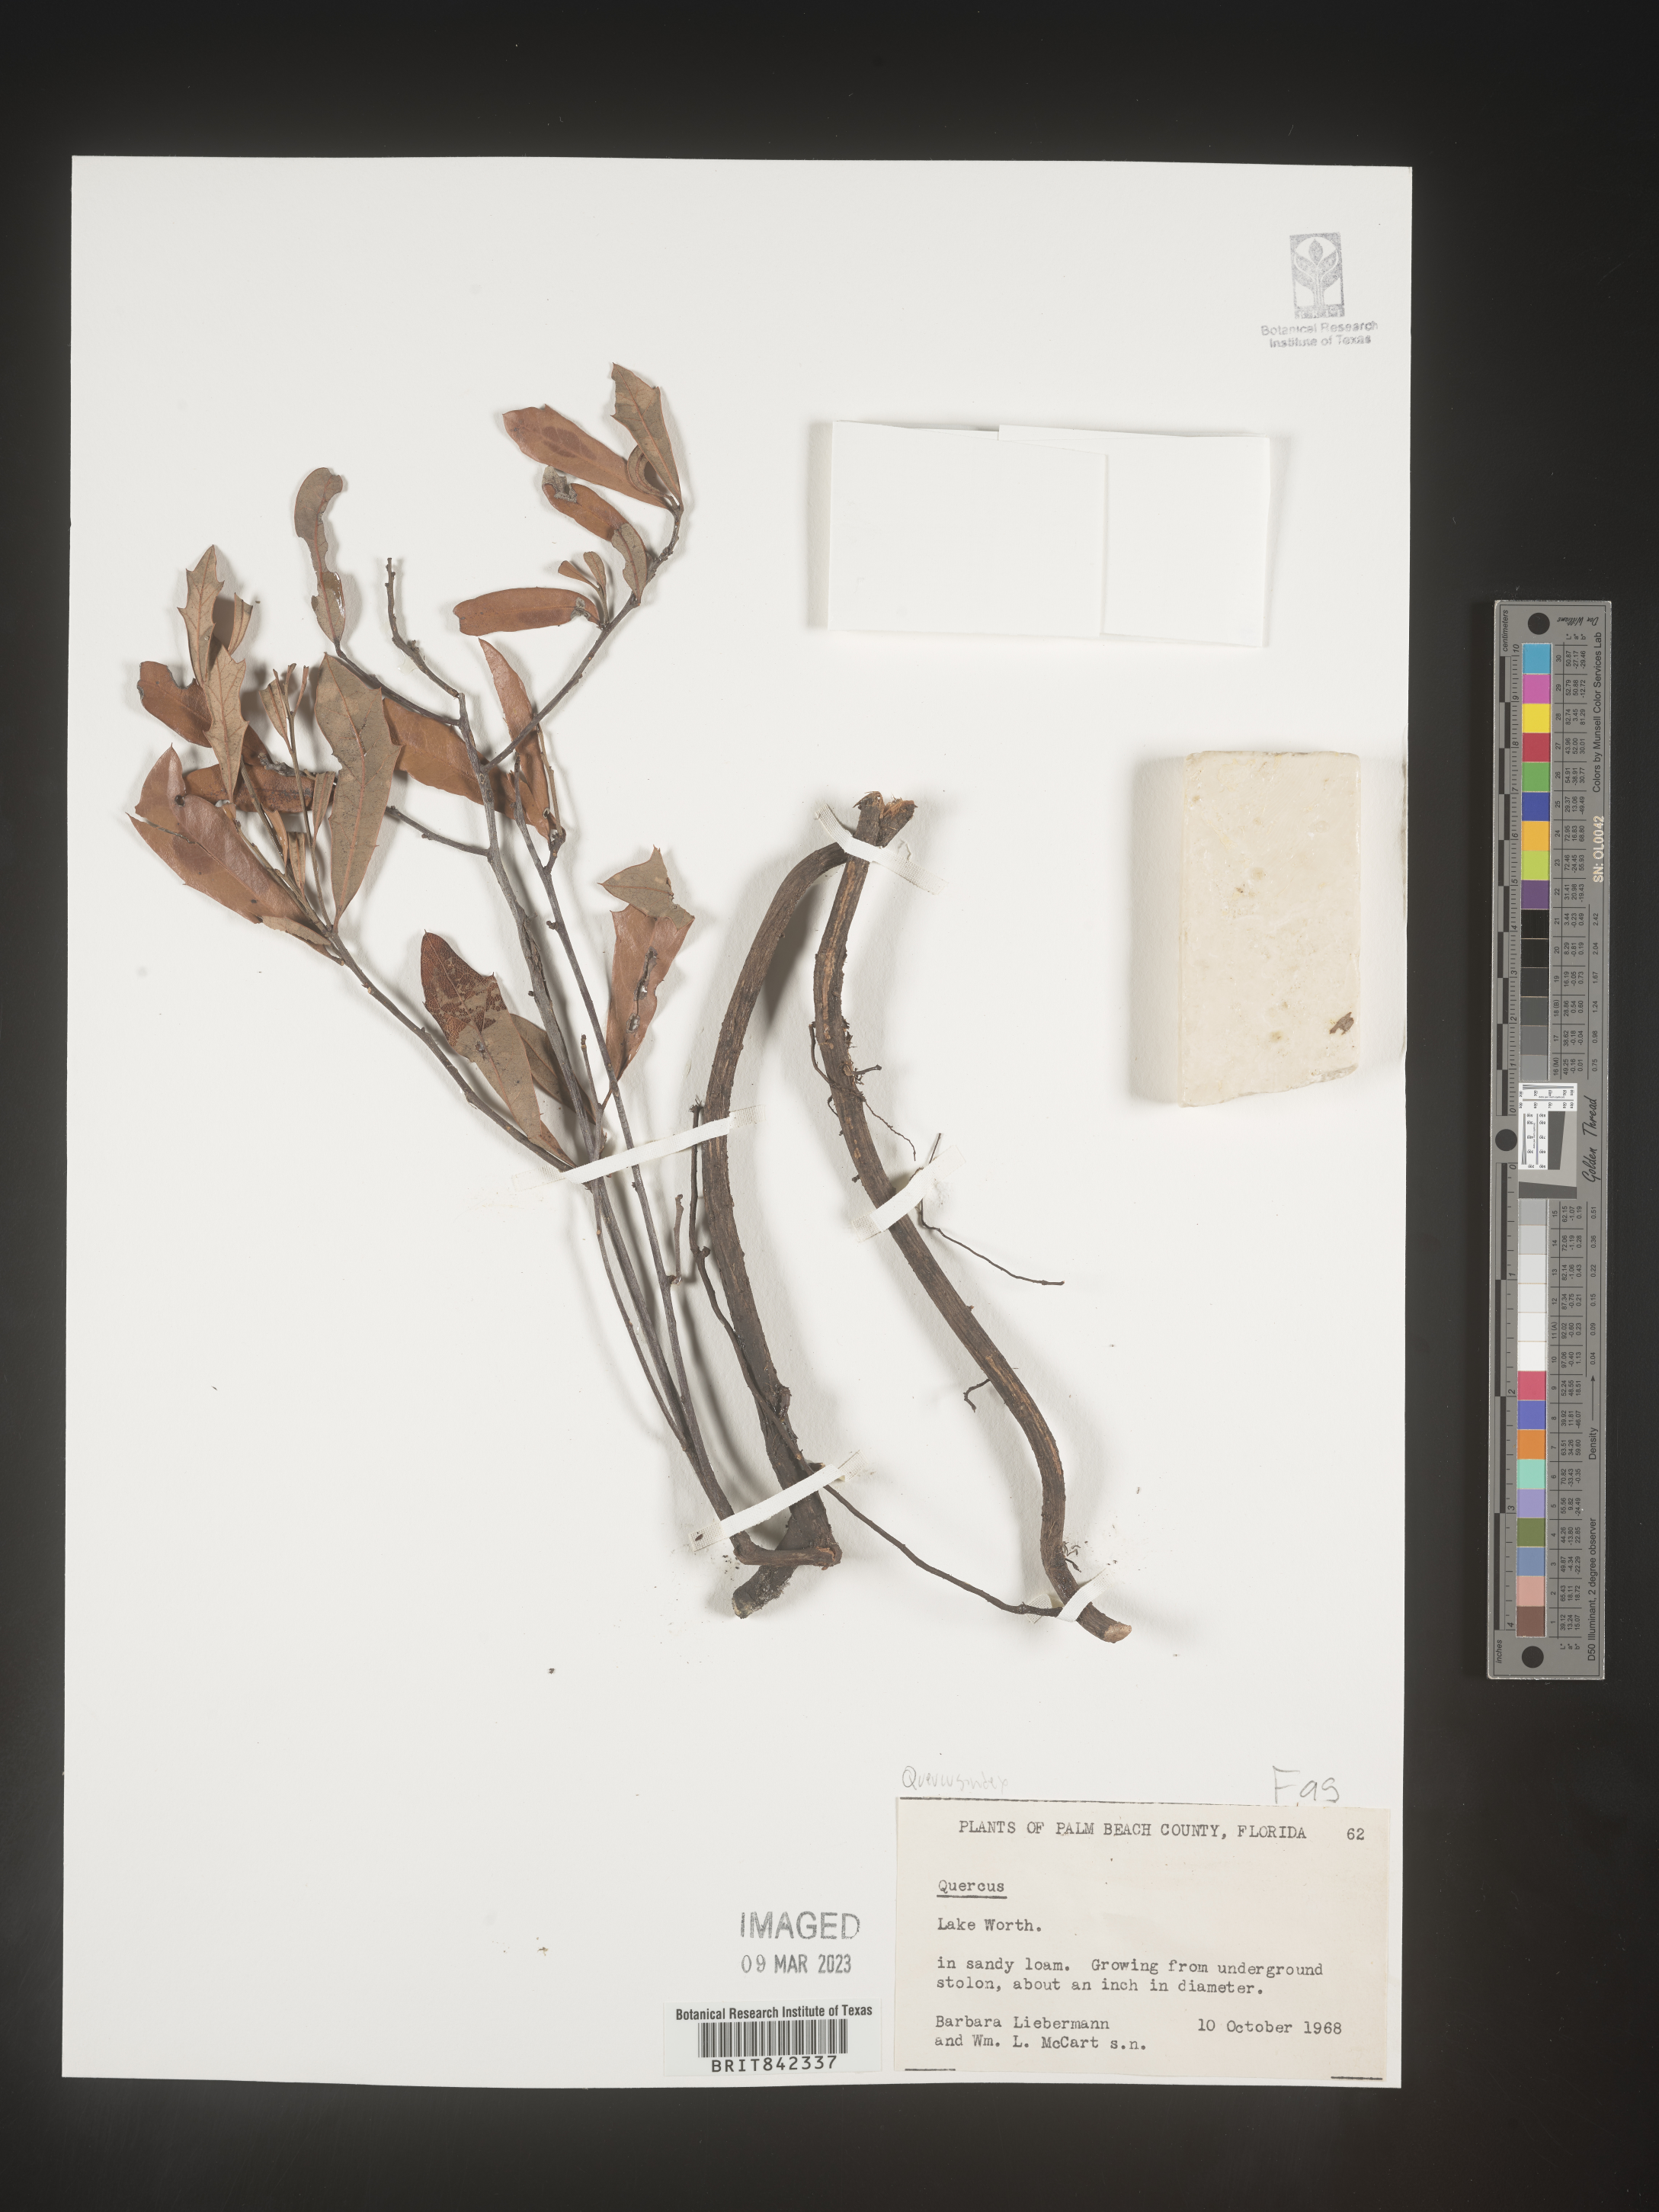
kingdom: Plantae
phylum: Tracheophyta
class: Magnoliopsida
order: Fagales
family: Fagaceae
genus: Quercus
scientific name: Quercus
